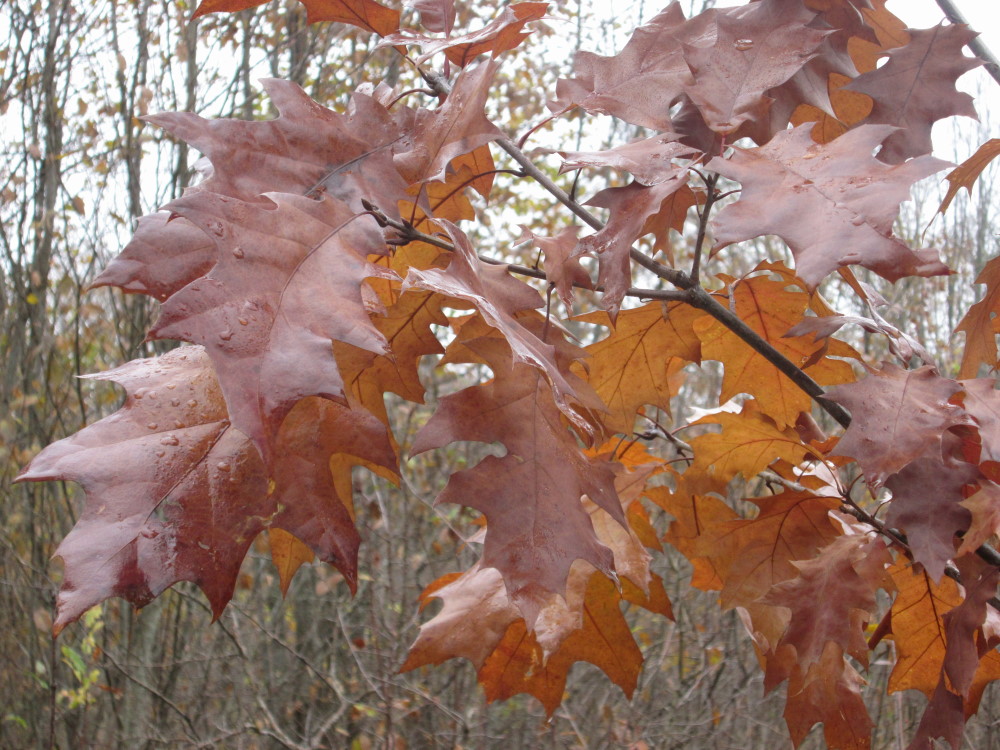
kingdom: Plantae
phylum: Tracheophyta
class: Magnoliopsida
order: Fagales
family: Fagaceae
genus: Quercus
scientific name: Quercus robur
